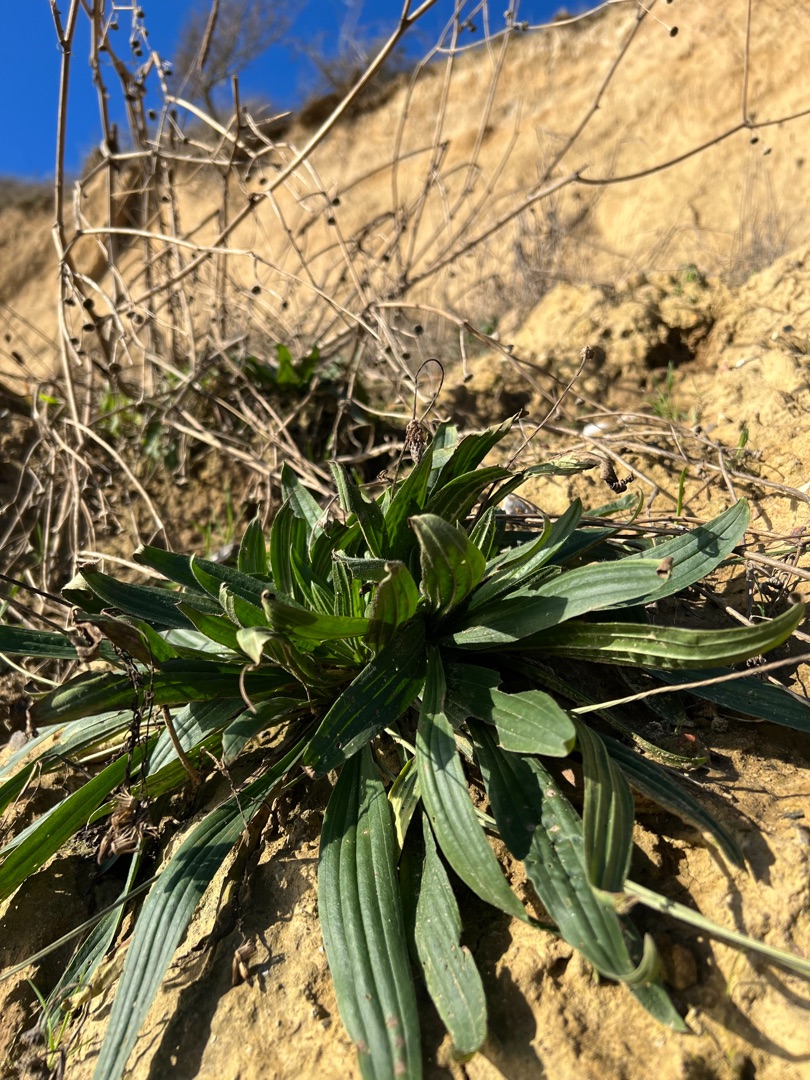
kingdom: Plantae
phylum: Tracheophyta
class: Magnoliopsida
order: Lamiales
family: Plantaginaceae
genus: Plantago
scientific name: Plantago lanceolata
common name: Lancet-vejbred
